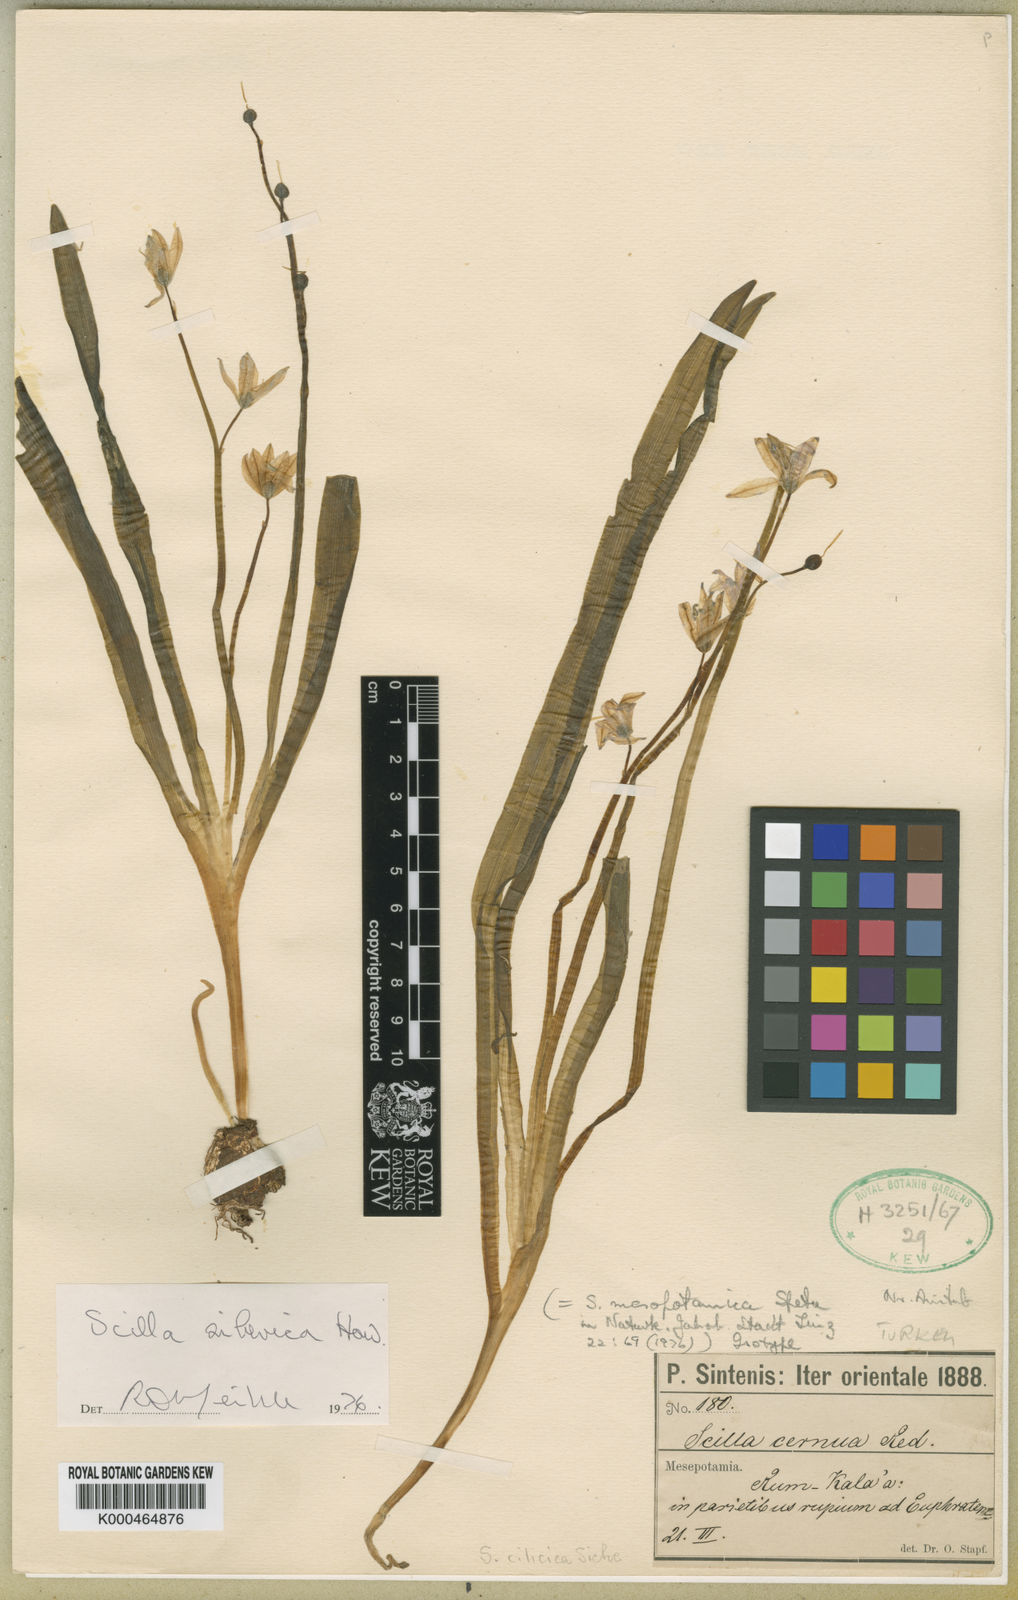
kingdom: Plantae
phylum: Tracheophyta
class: Liliopsida
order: Asparagales
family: Asparagaceae
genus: Scilla
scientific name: Scilla
